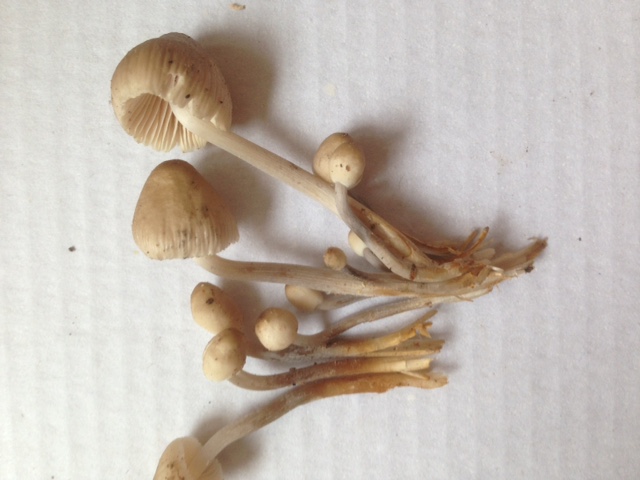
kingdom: Fungi
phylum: Basidiomycota
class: Agaricomycetes
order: Agaricales
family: Mycenaceae
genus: Mycena
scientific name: Mycena polygramma
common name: mangestribet huesvamp
